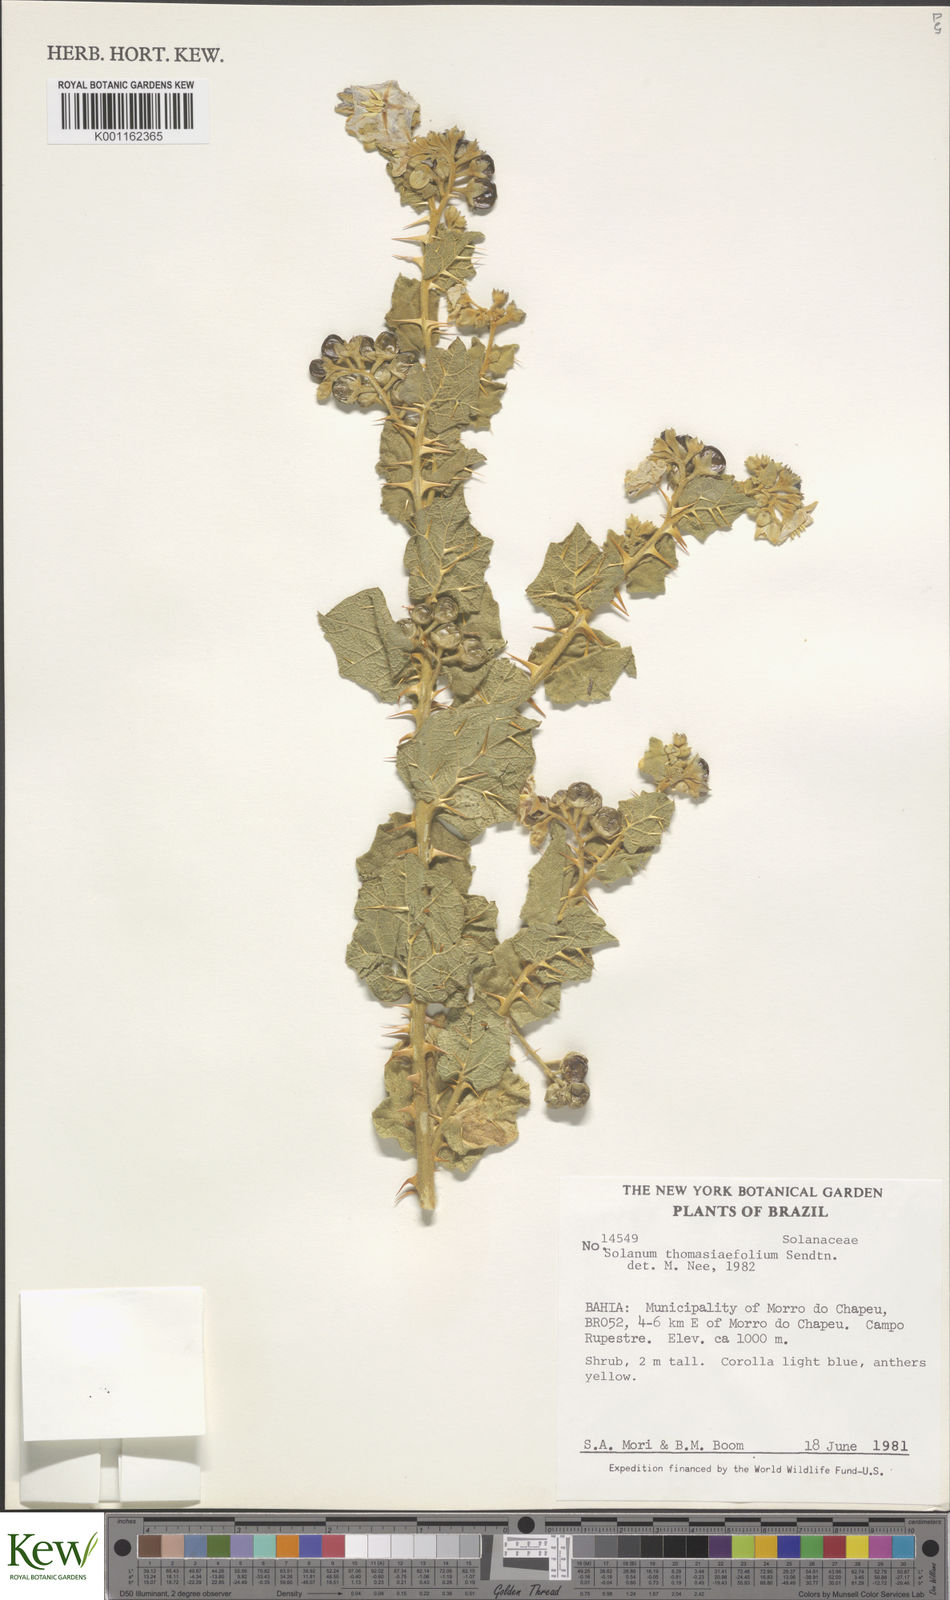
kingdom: Plantae
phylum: Tracheophyta
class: Magnoliopsida
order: Solanales
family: Solanaceae
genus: Solanum
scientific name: Solanum thomasiifolium
